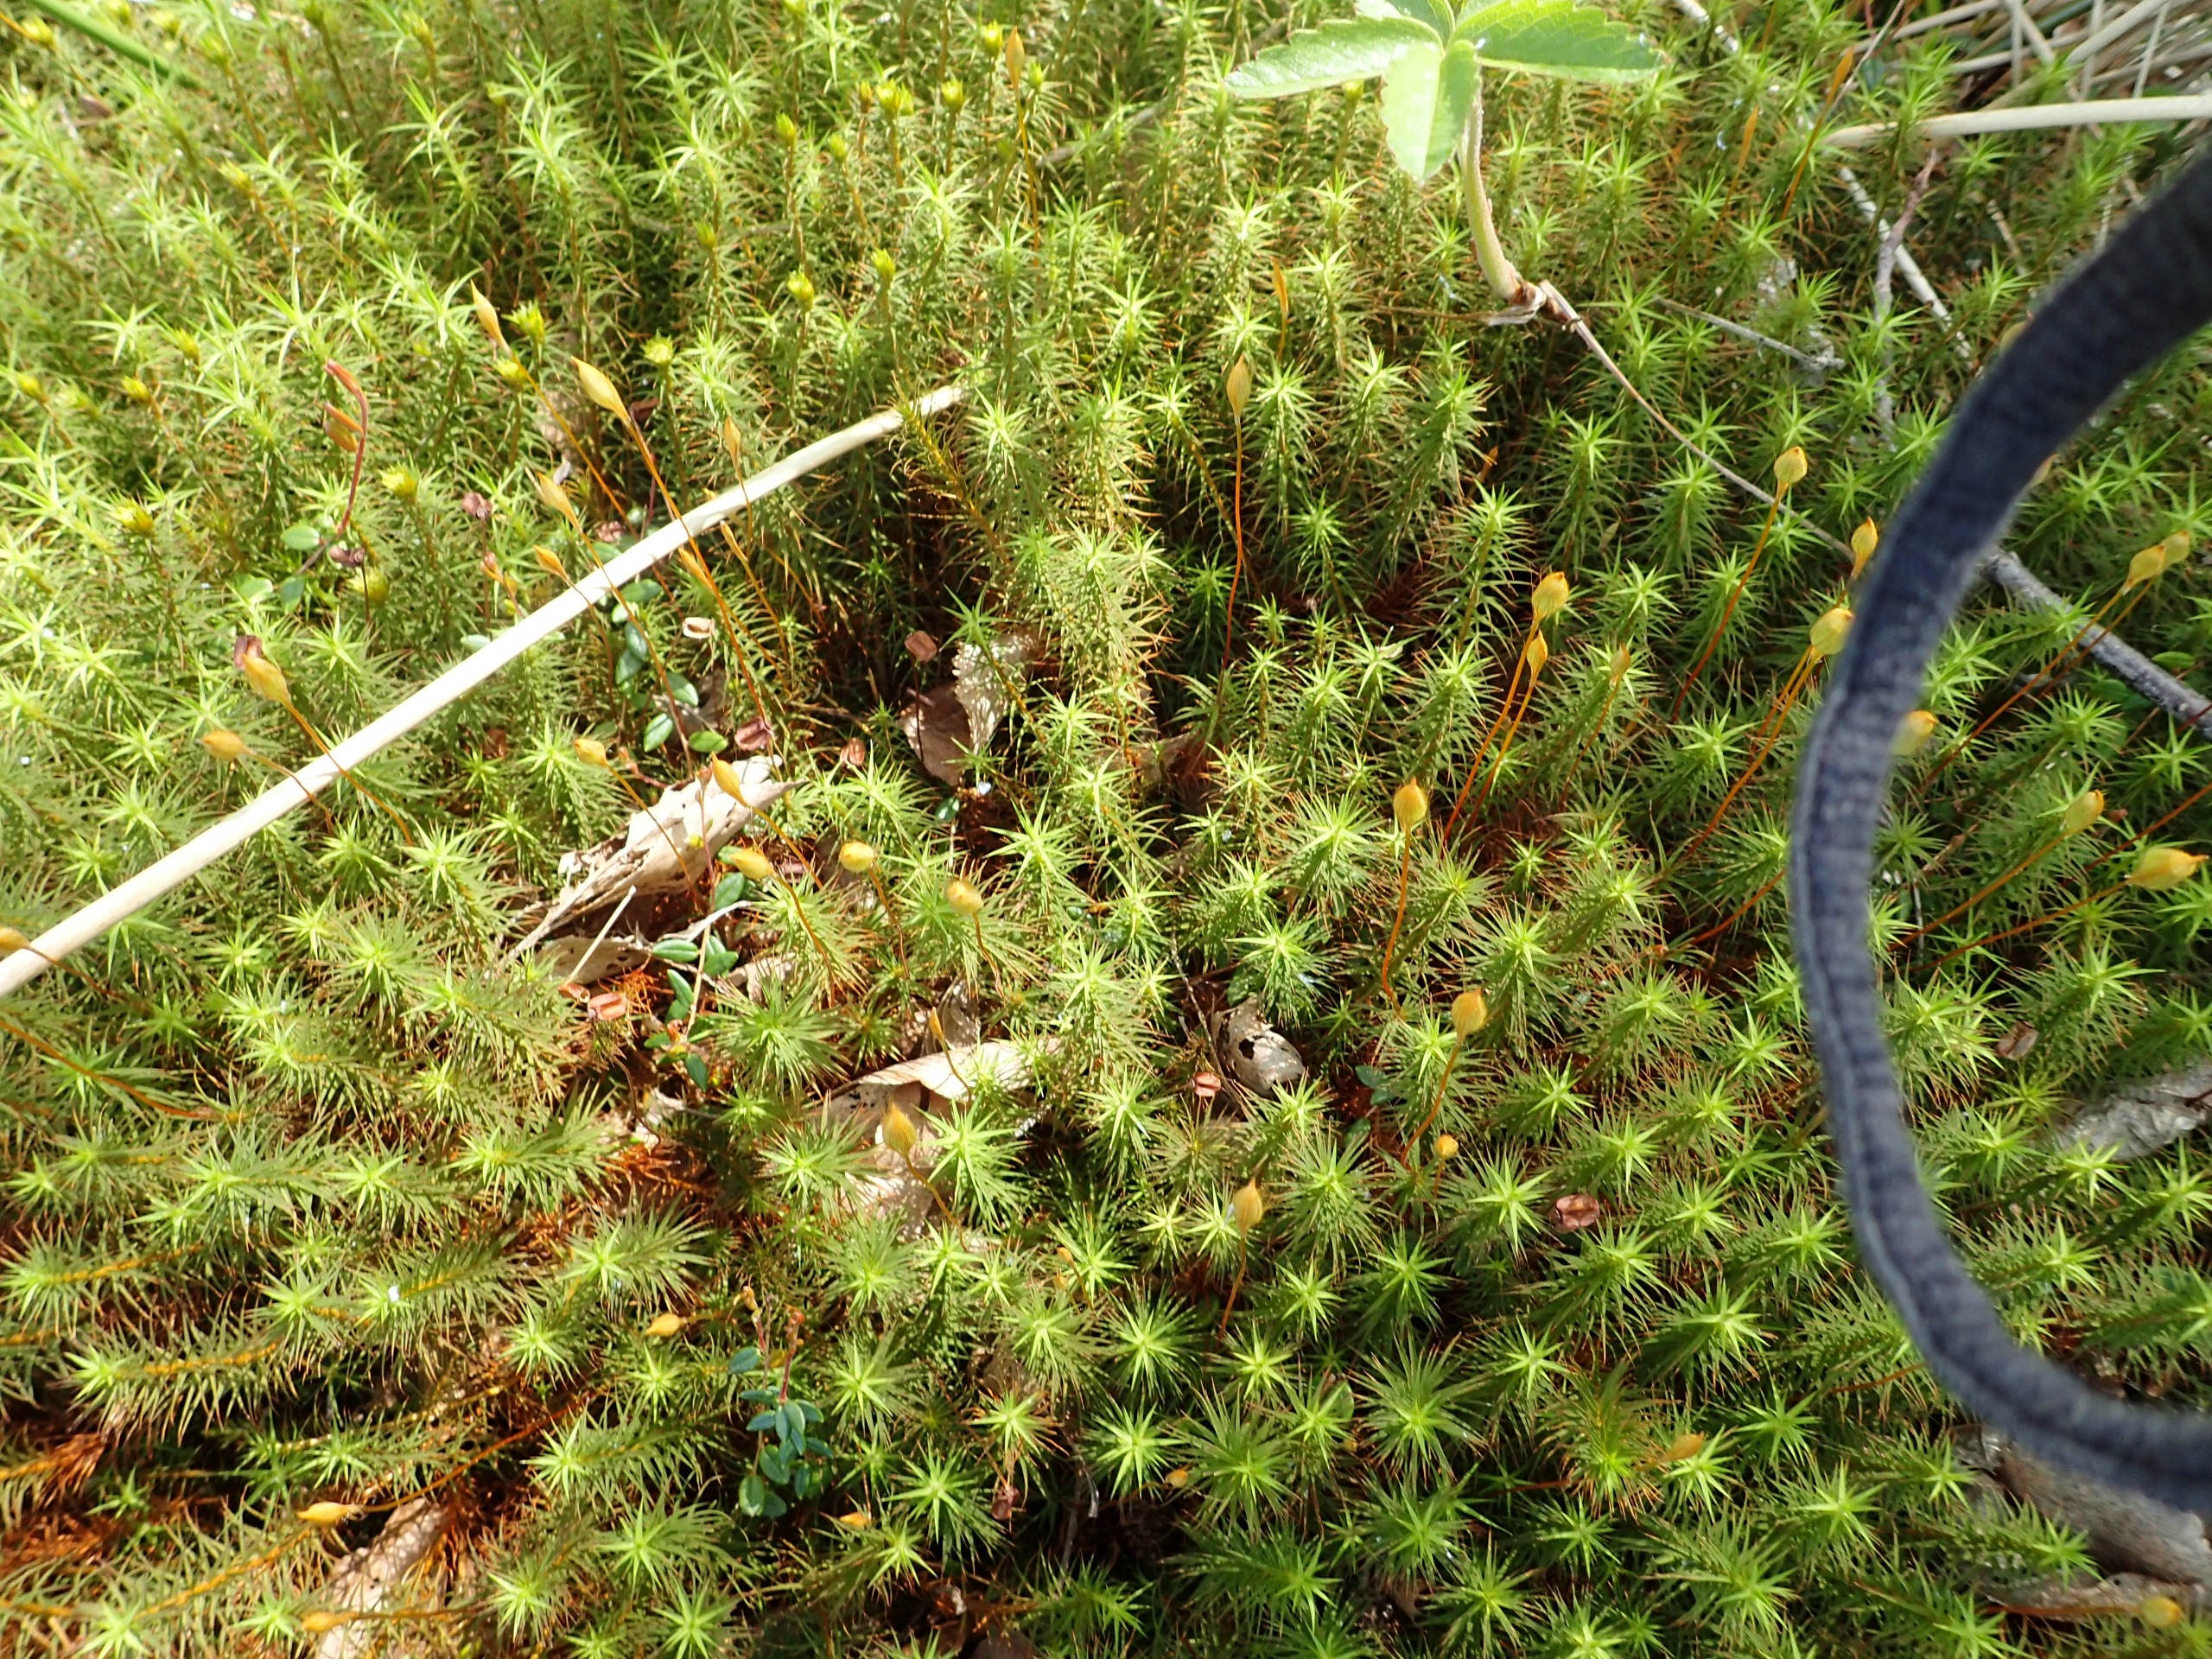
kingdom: Plantae
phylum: Bryophyta
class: Polytrichopsida
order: Polytrichales
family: Polytrichaceae
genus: Polytrichum
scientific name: Polytrichum commune
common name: Almindelig jomfruhår
